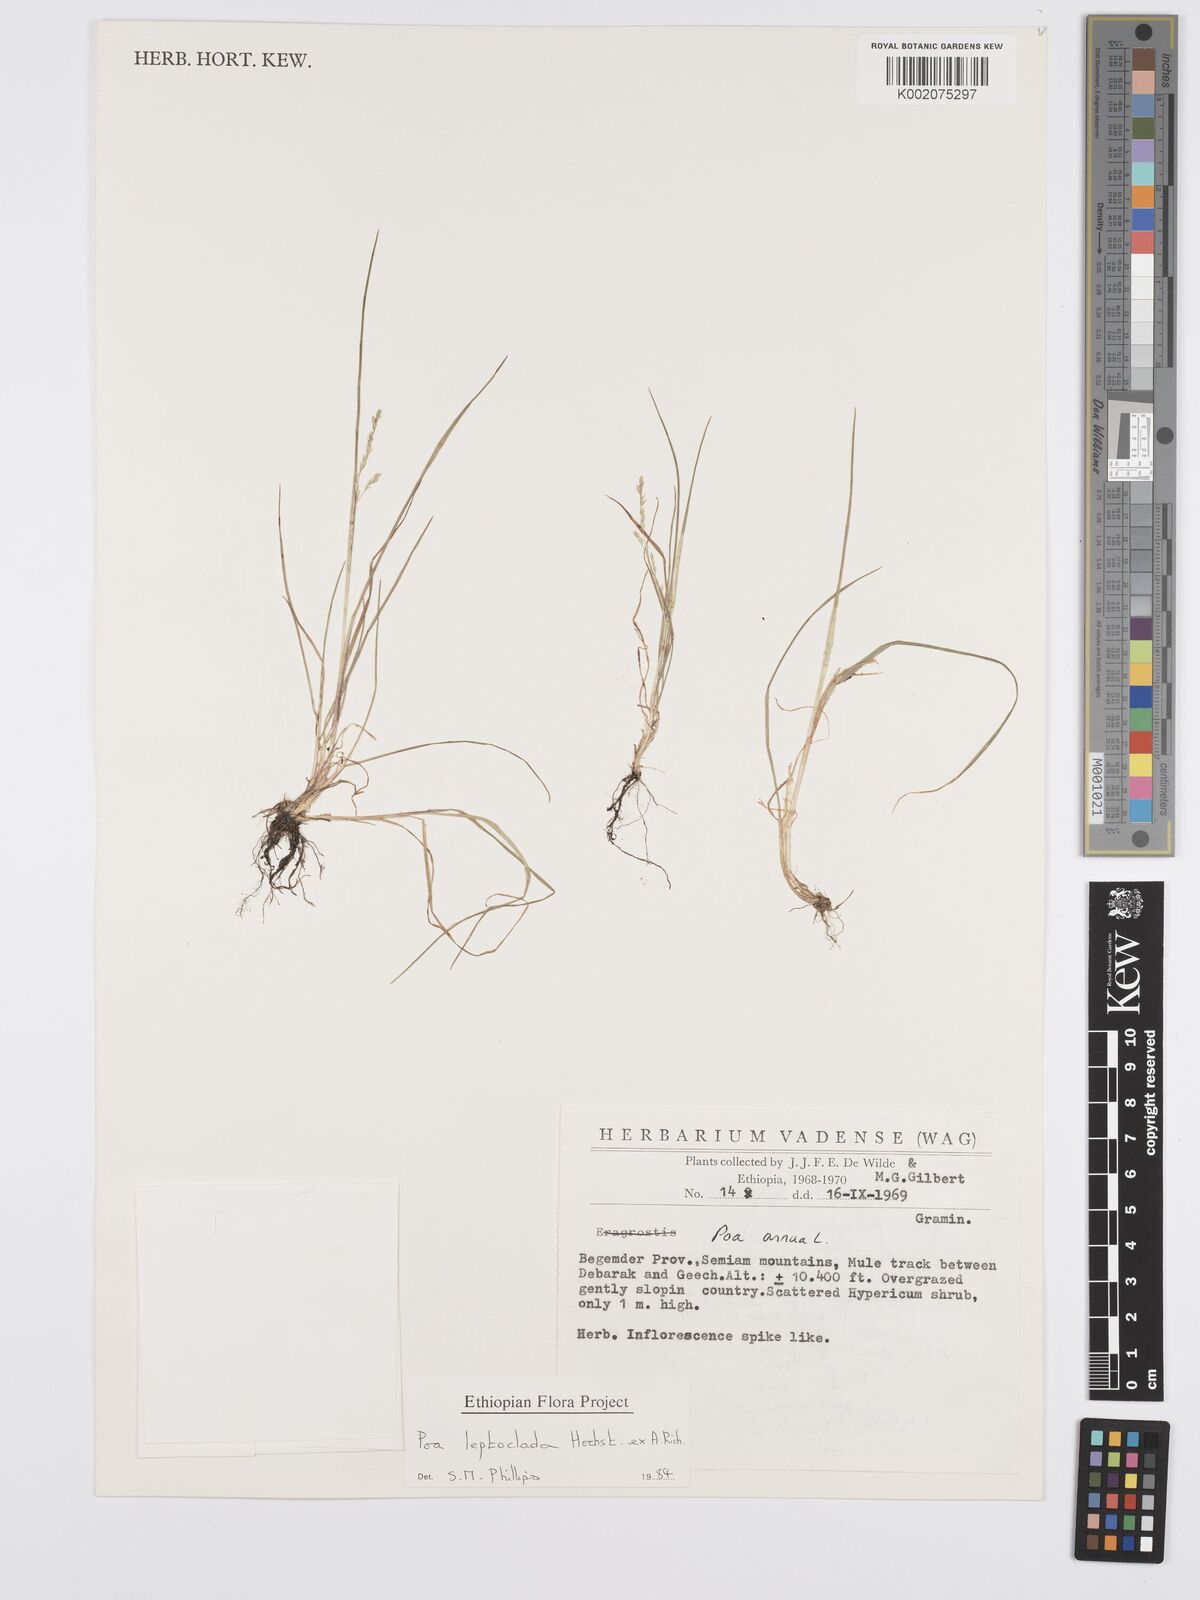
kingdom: Plantae
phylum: Tracheophyta
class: Liliopsida
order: Poales
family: Poaceae
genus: Poa
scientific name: Poa leptoclada
